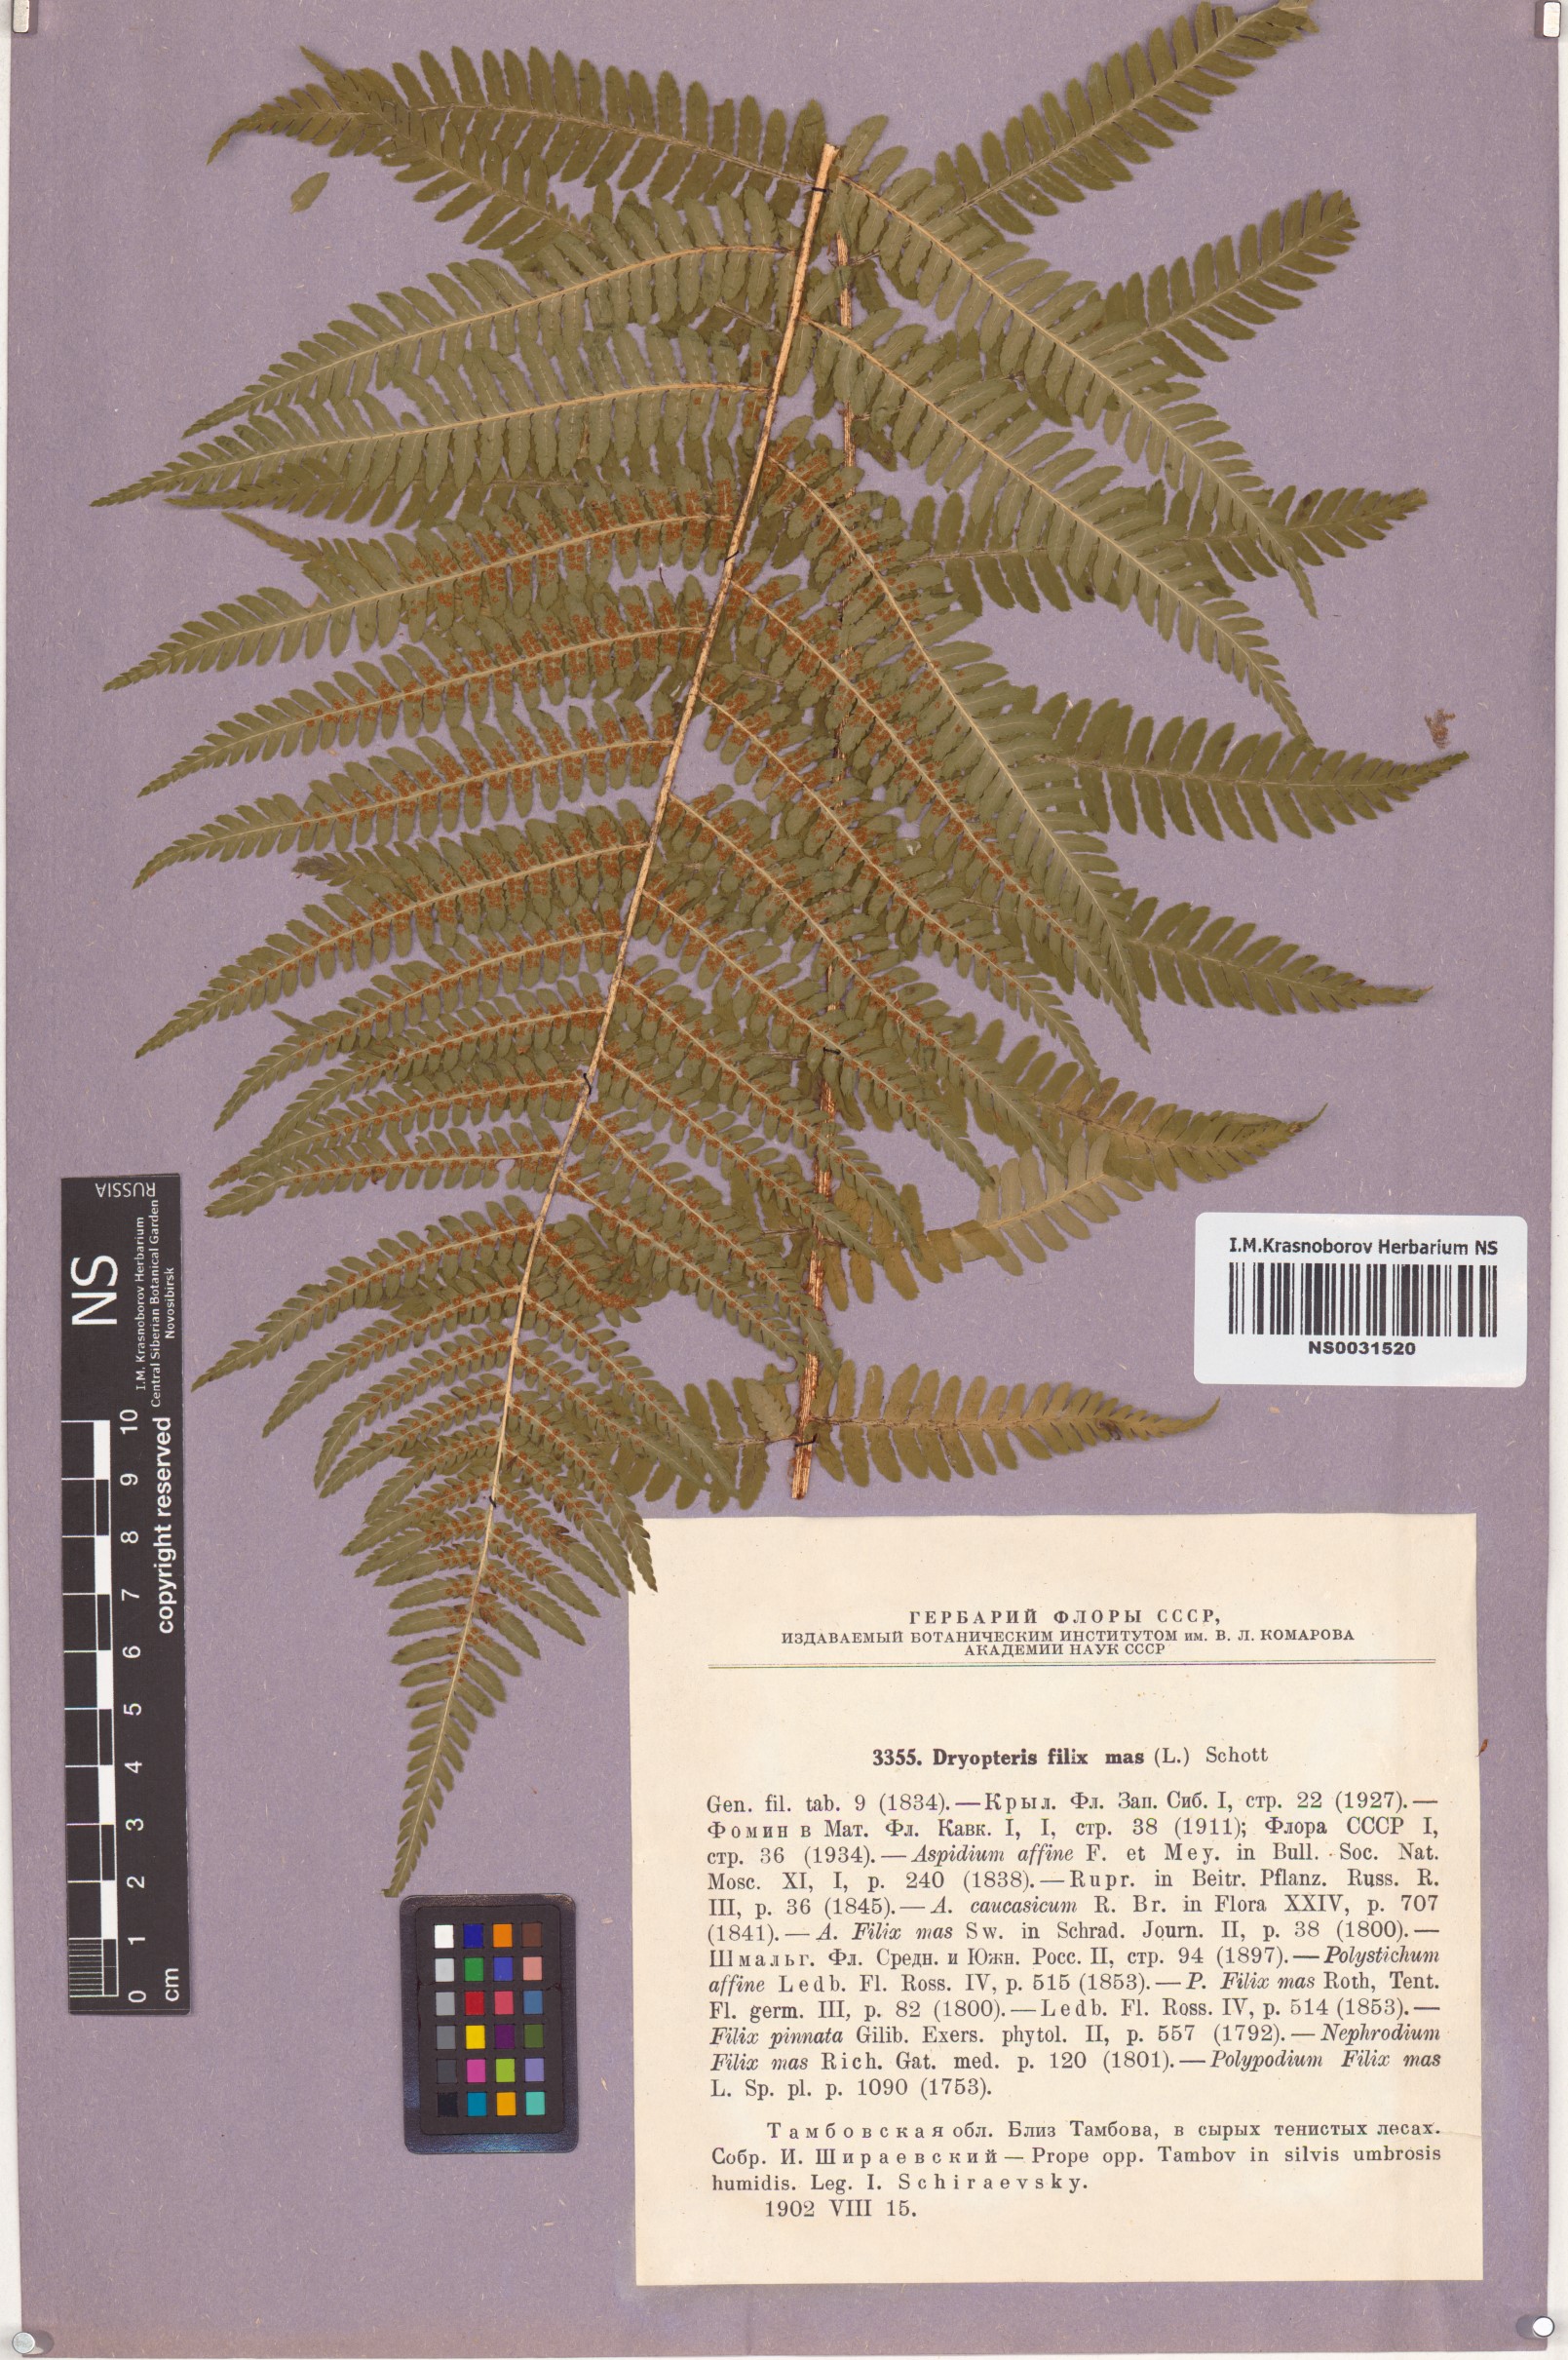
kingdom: Plantae
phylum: Tracheophyta
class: Polypodiopsida
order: Polypodiales
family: Dryopteridaceae
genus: Dryopteris
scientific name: Dryopteris filix-mas
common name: Male fern
